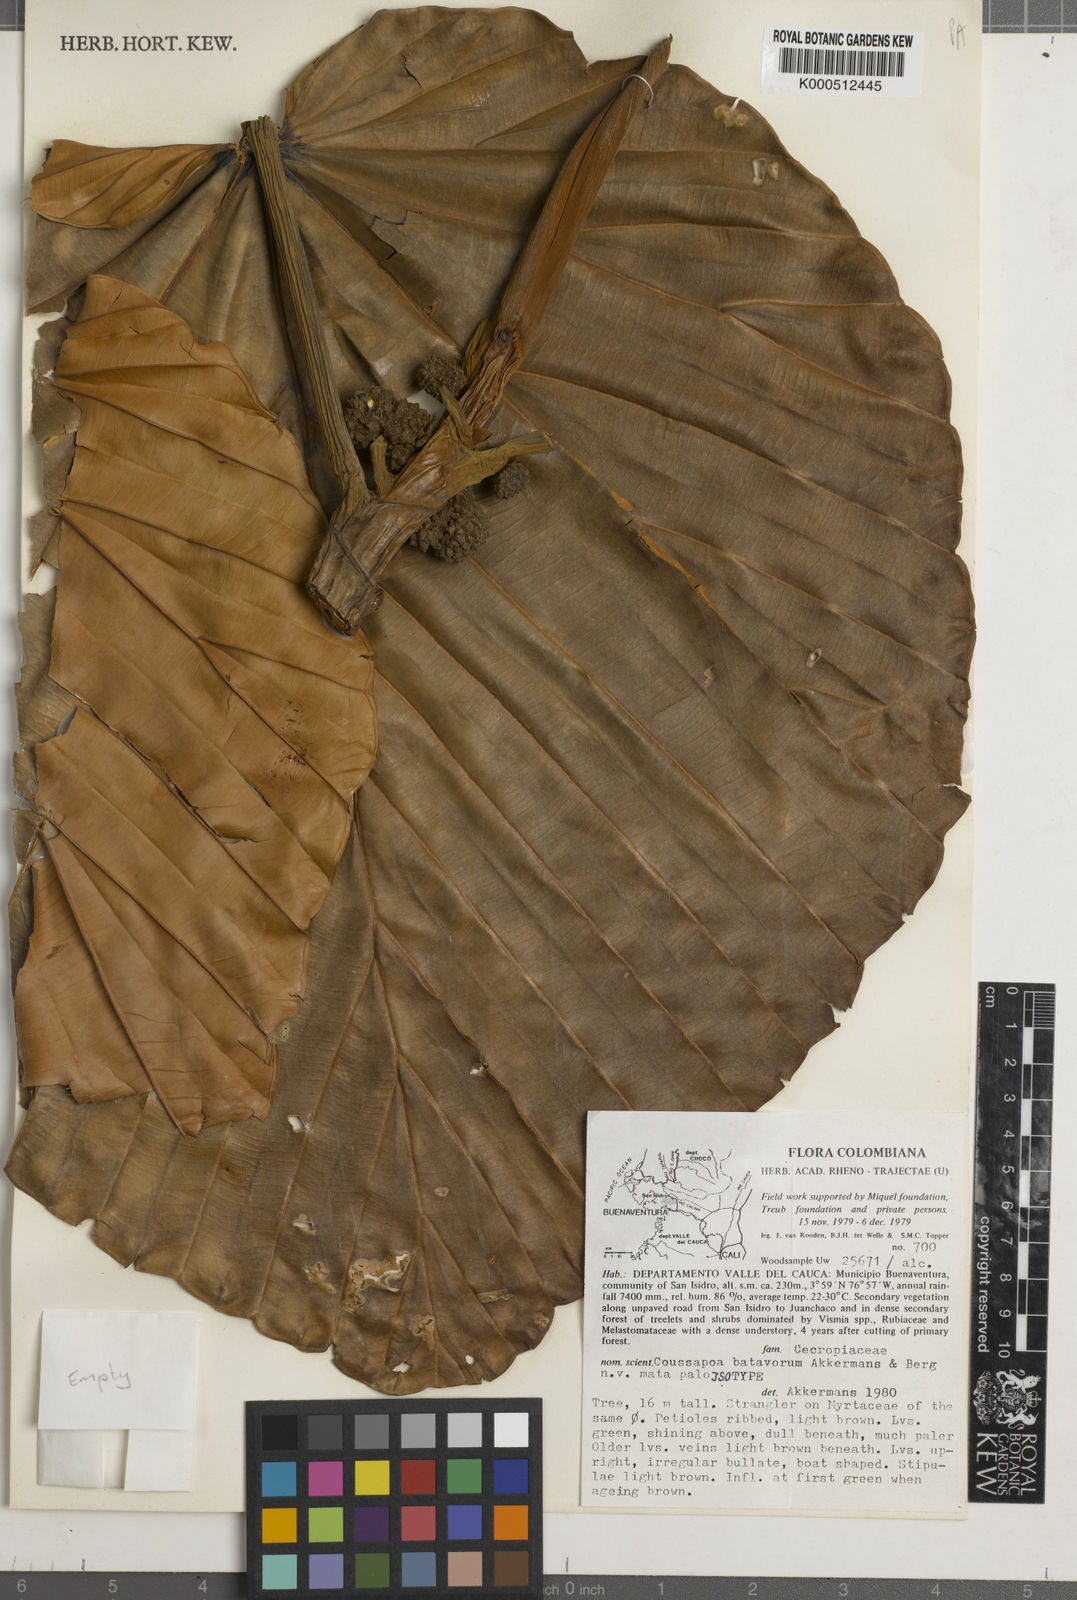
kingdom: Plantae
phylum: Tracheophyta
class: Magnoliopsida
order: Rosales
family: Urticaceae
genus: Coussapoa
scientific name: Coussapoa batavorum
